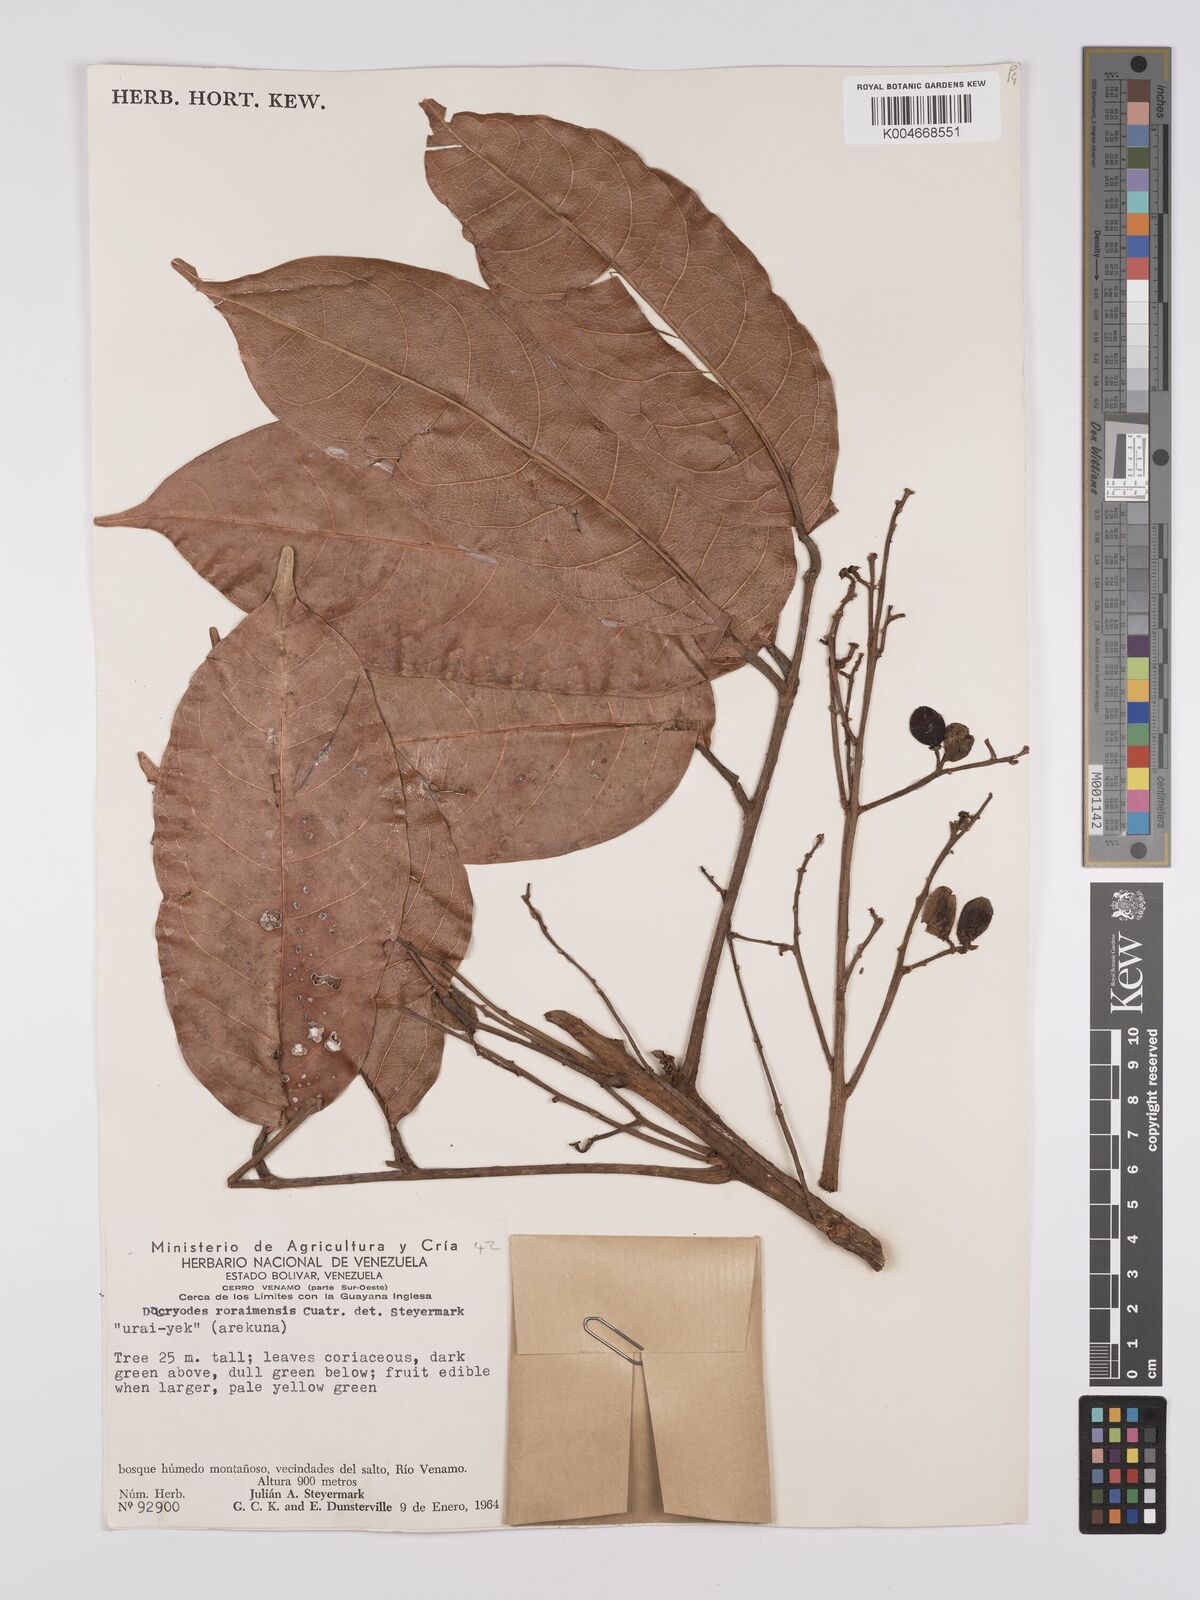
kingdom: Plantae
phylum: Tracheophyta
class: Magnoliopsida
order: Sapindales
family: Burseraceae
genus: Dacryodes
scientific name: Dacryodes roraimensis
